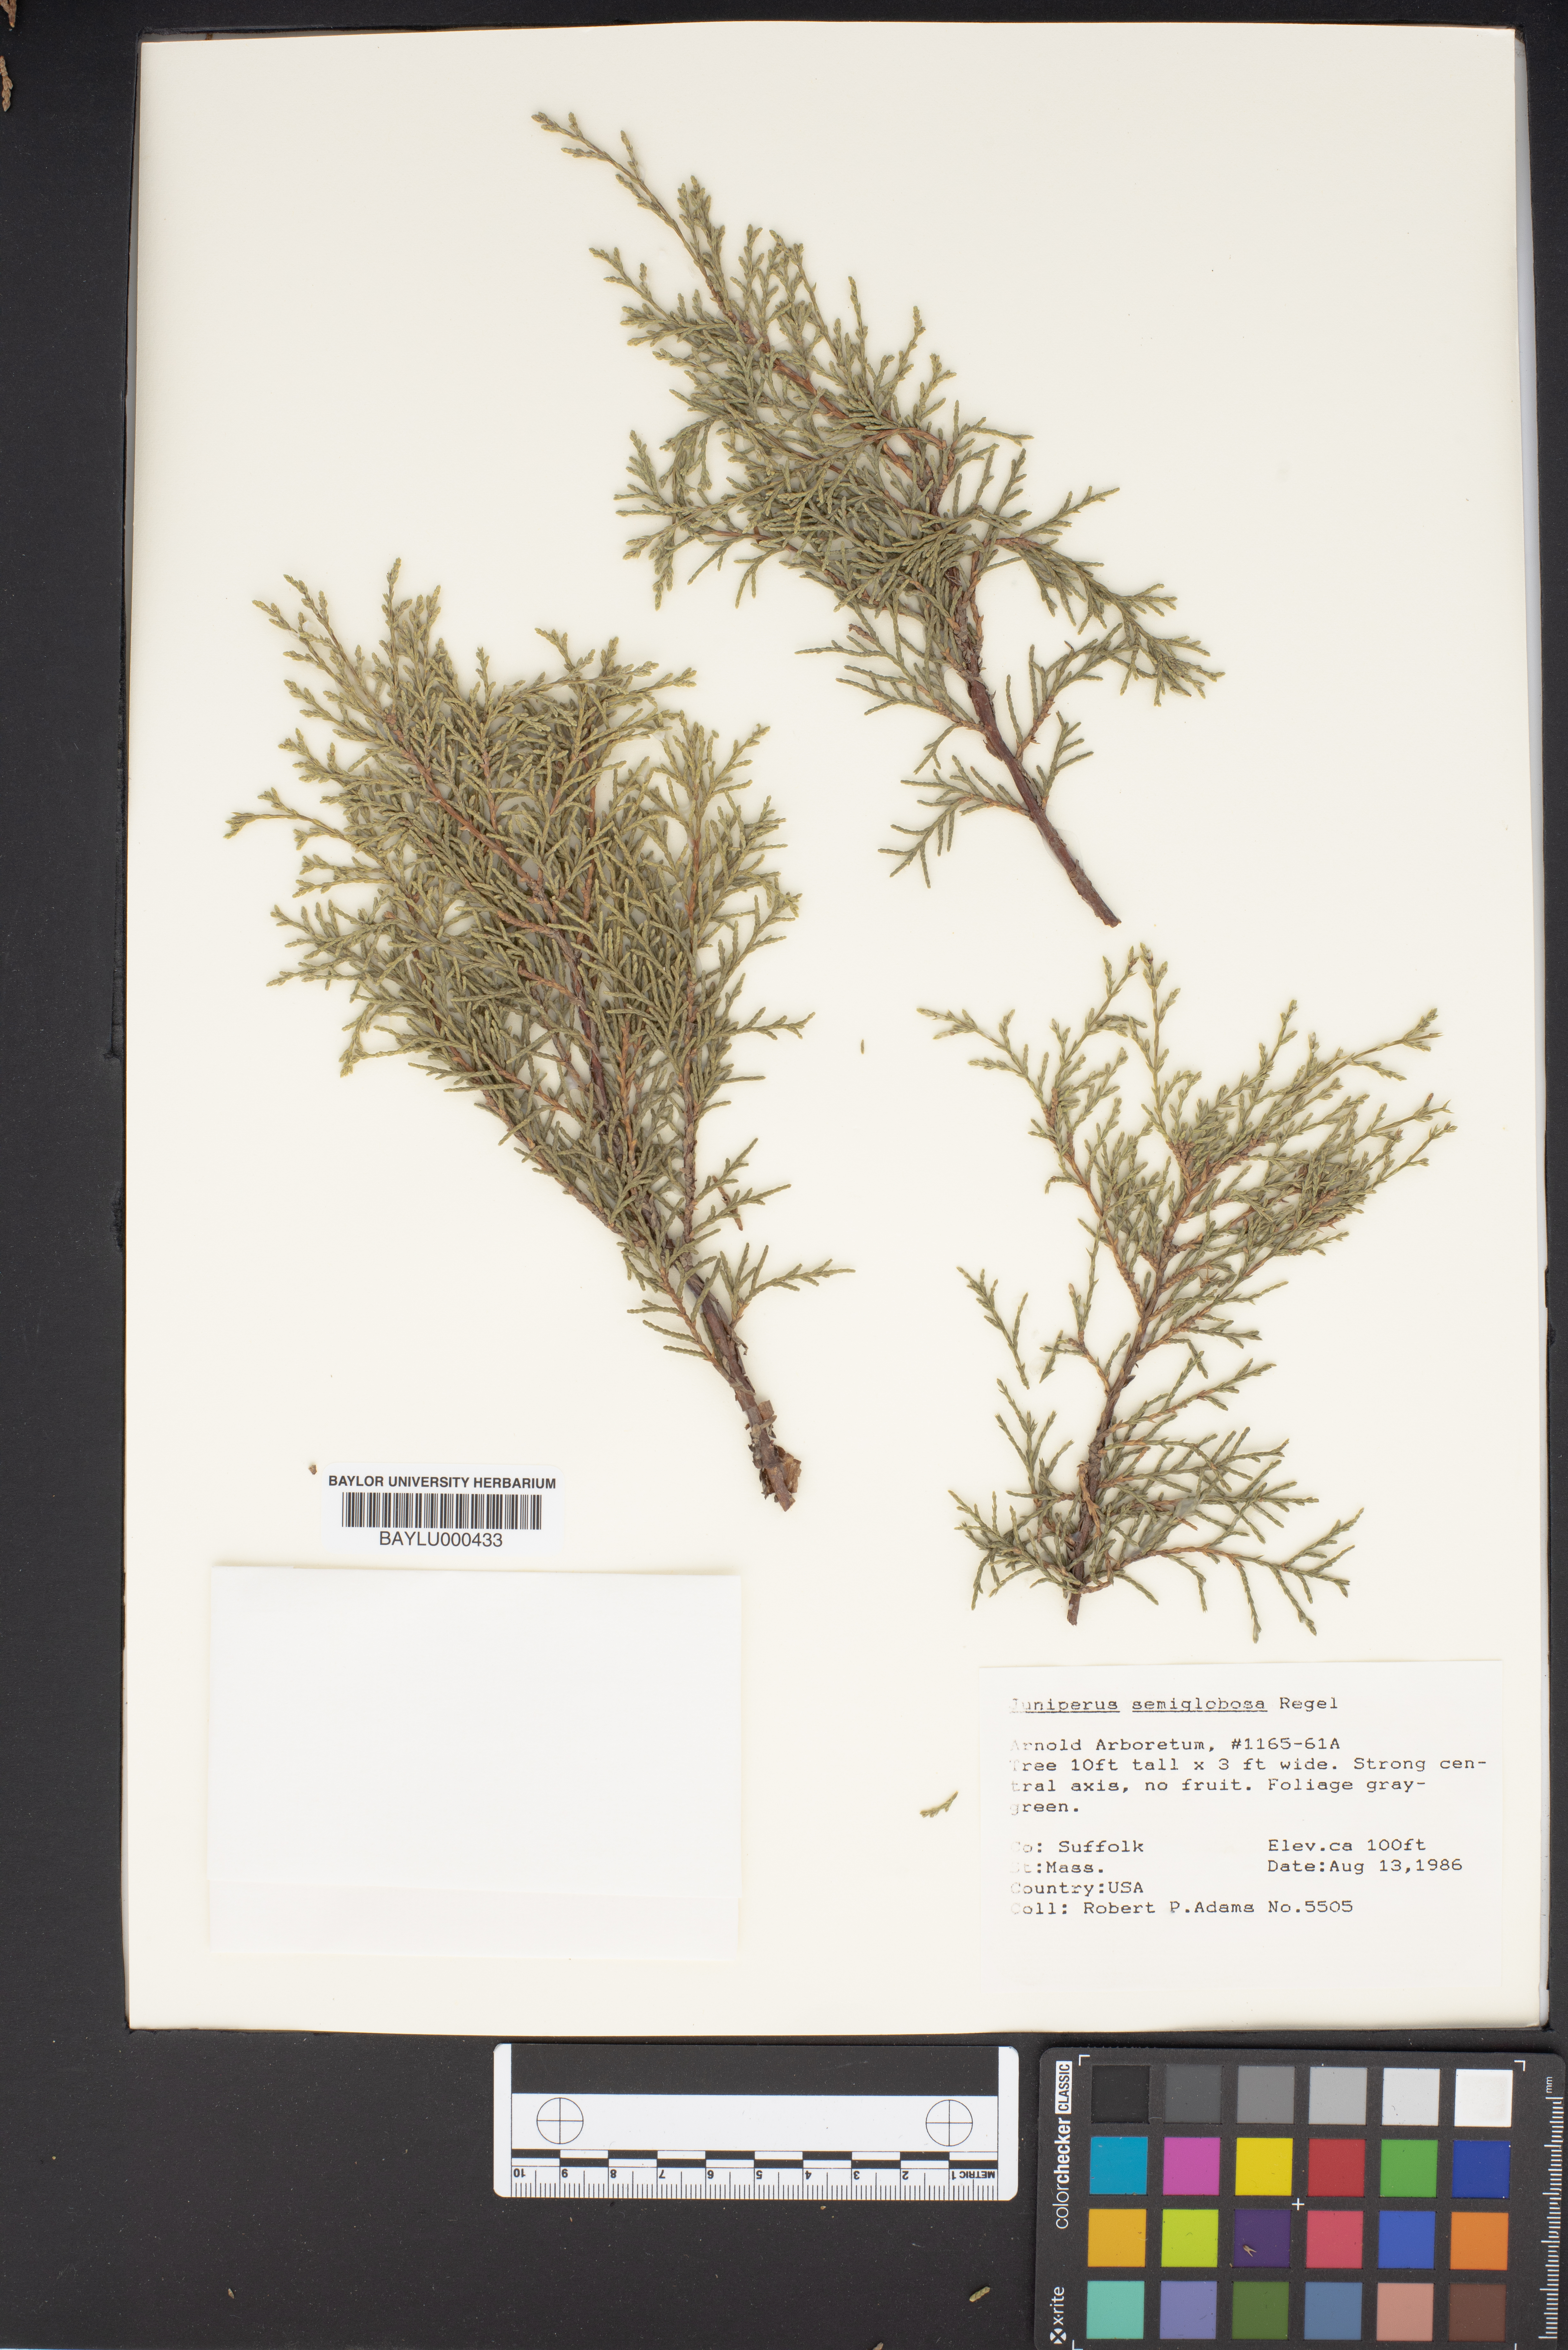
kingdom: Plantae
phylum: Tracheophyta
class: Pinopsida
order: Pinales
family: Cupressaceae
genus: Juniperus
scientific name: Juniperus semiglobosa
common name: Pencil cedar
